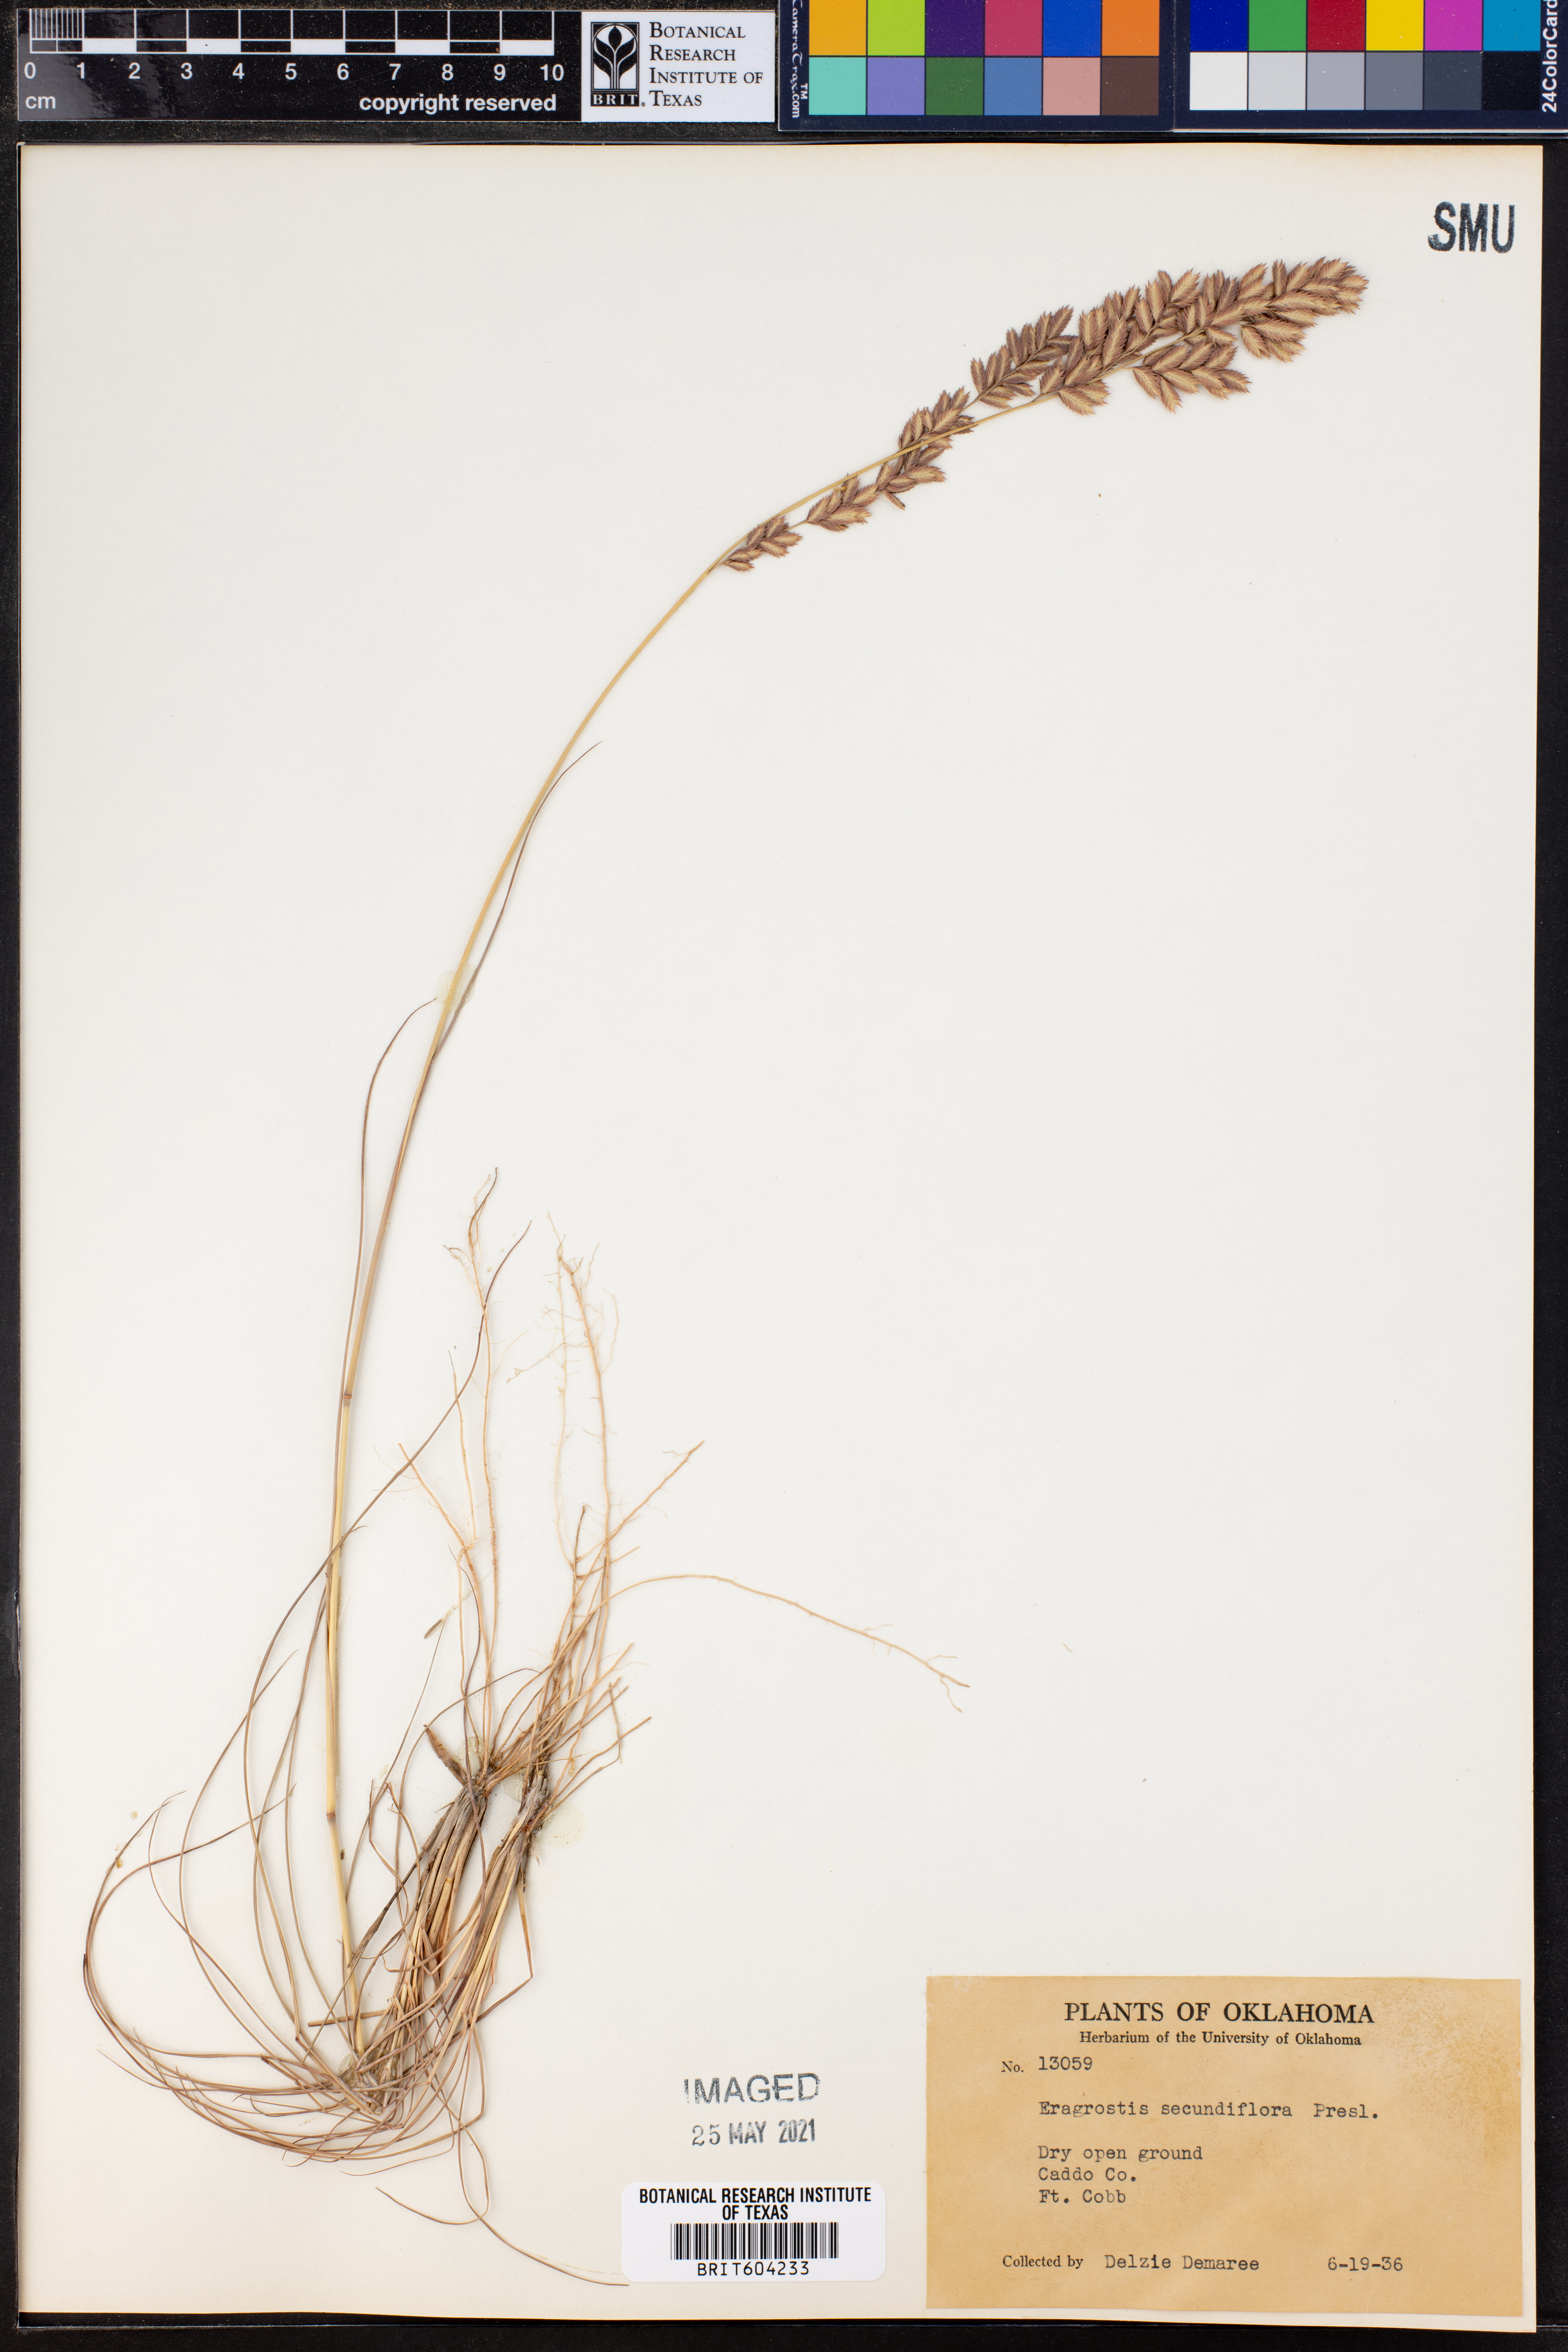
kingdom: Plantae
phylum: Tracheophyta
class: Liliopsida
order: Poales
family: Poaceae
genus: Eragrostis
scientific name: Eragrostis secundiflora
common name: Red love grass
